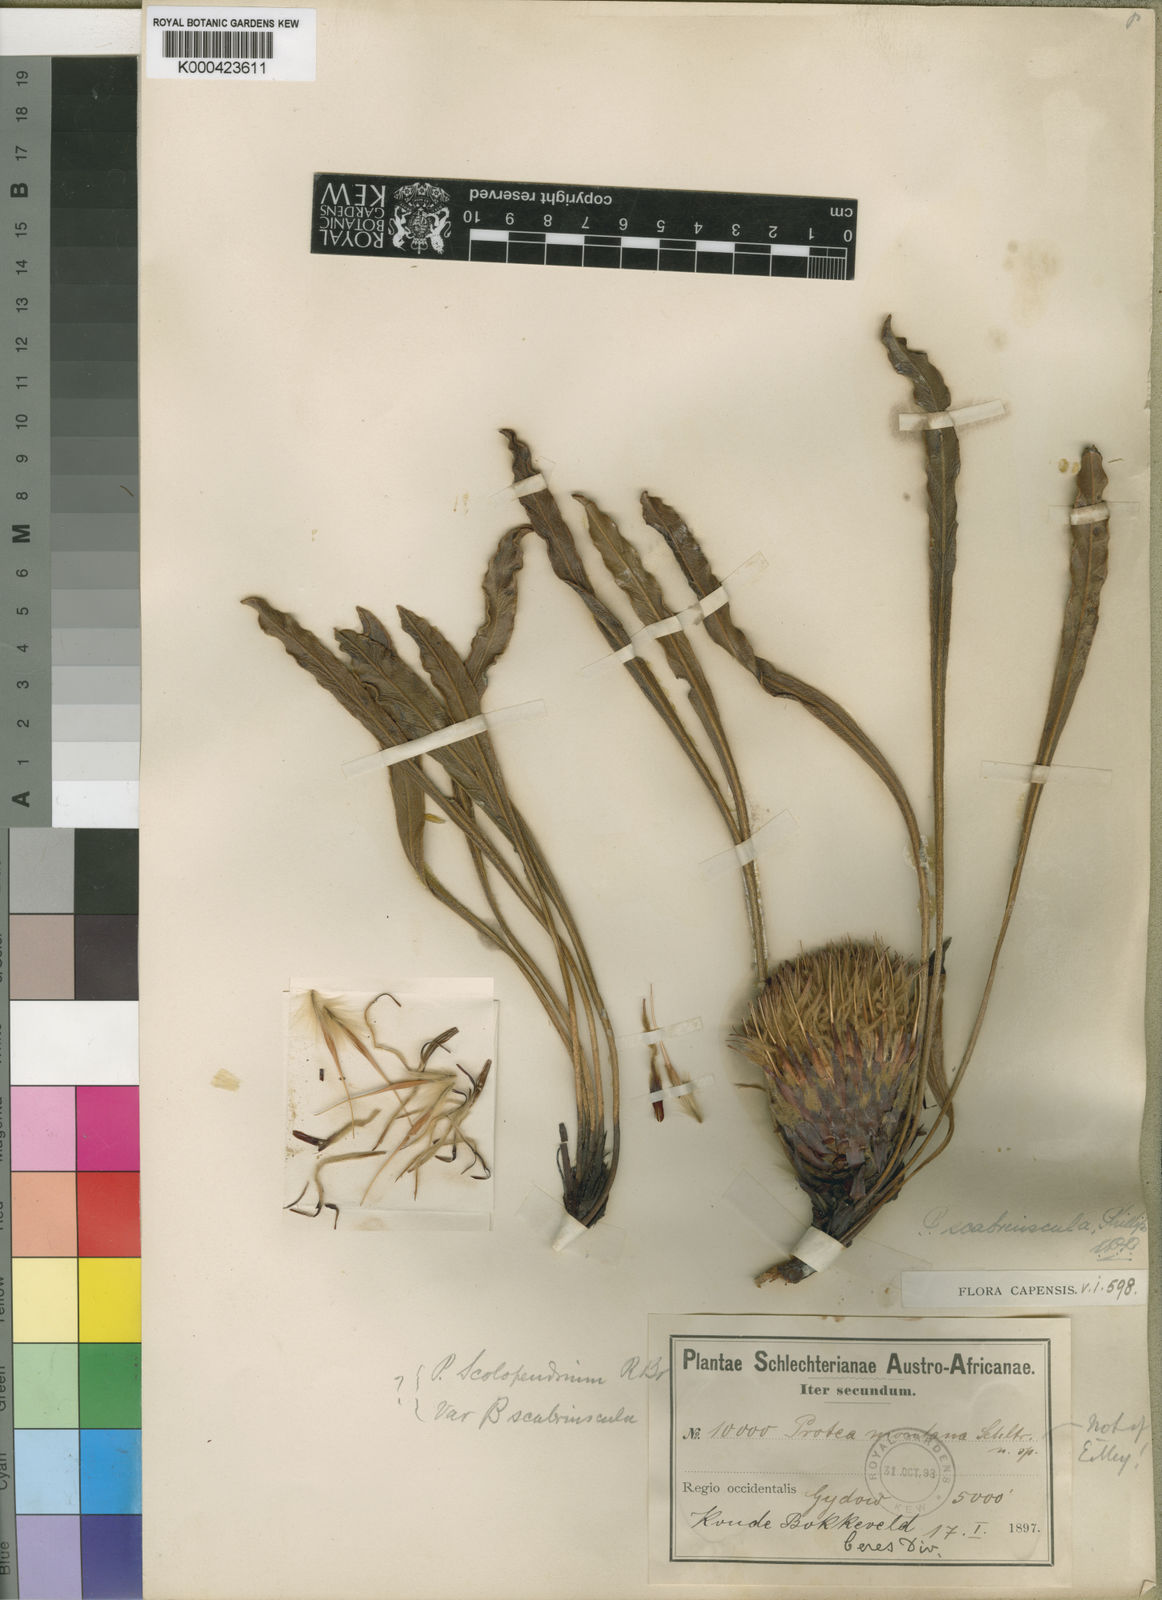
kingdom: Plantae
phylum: Tracheophyta
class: Magnoliopsida
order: Proteales
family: Proteaceae
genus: Protea
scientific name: Protea
